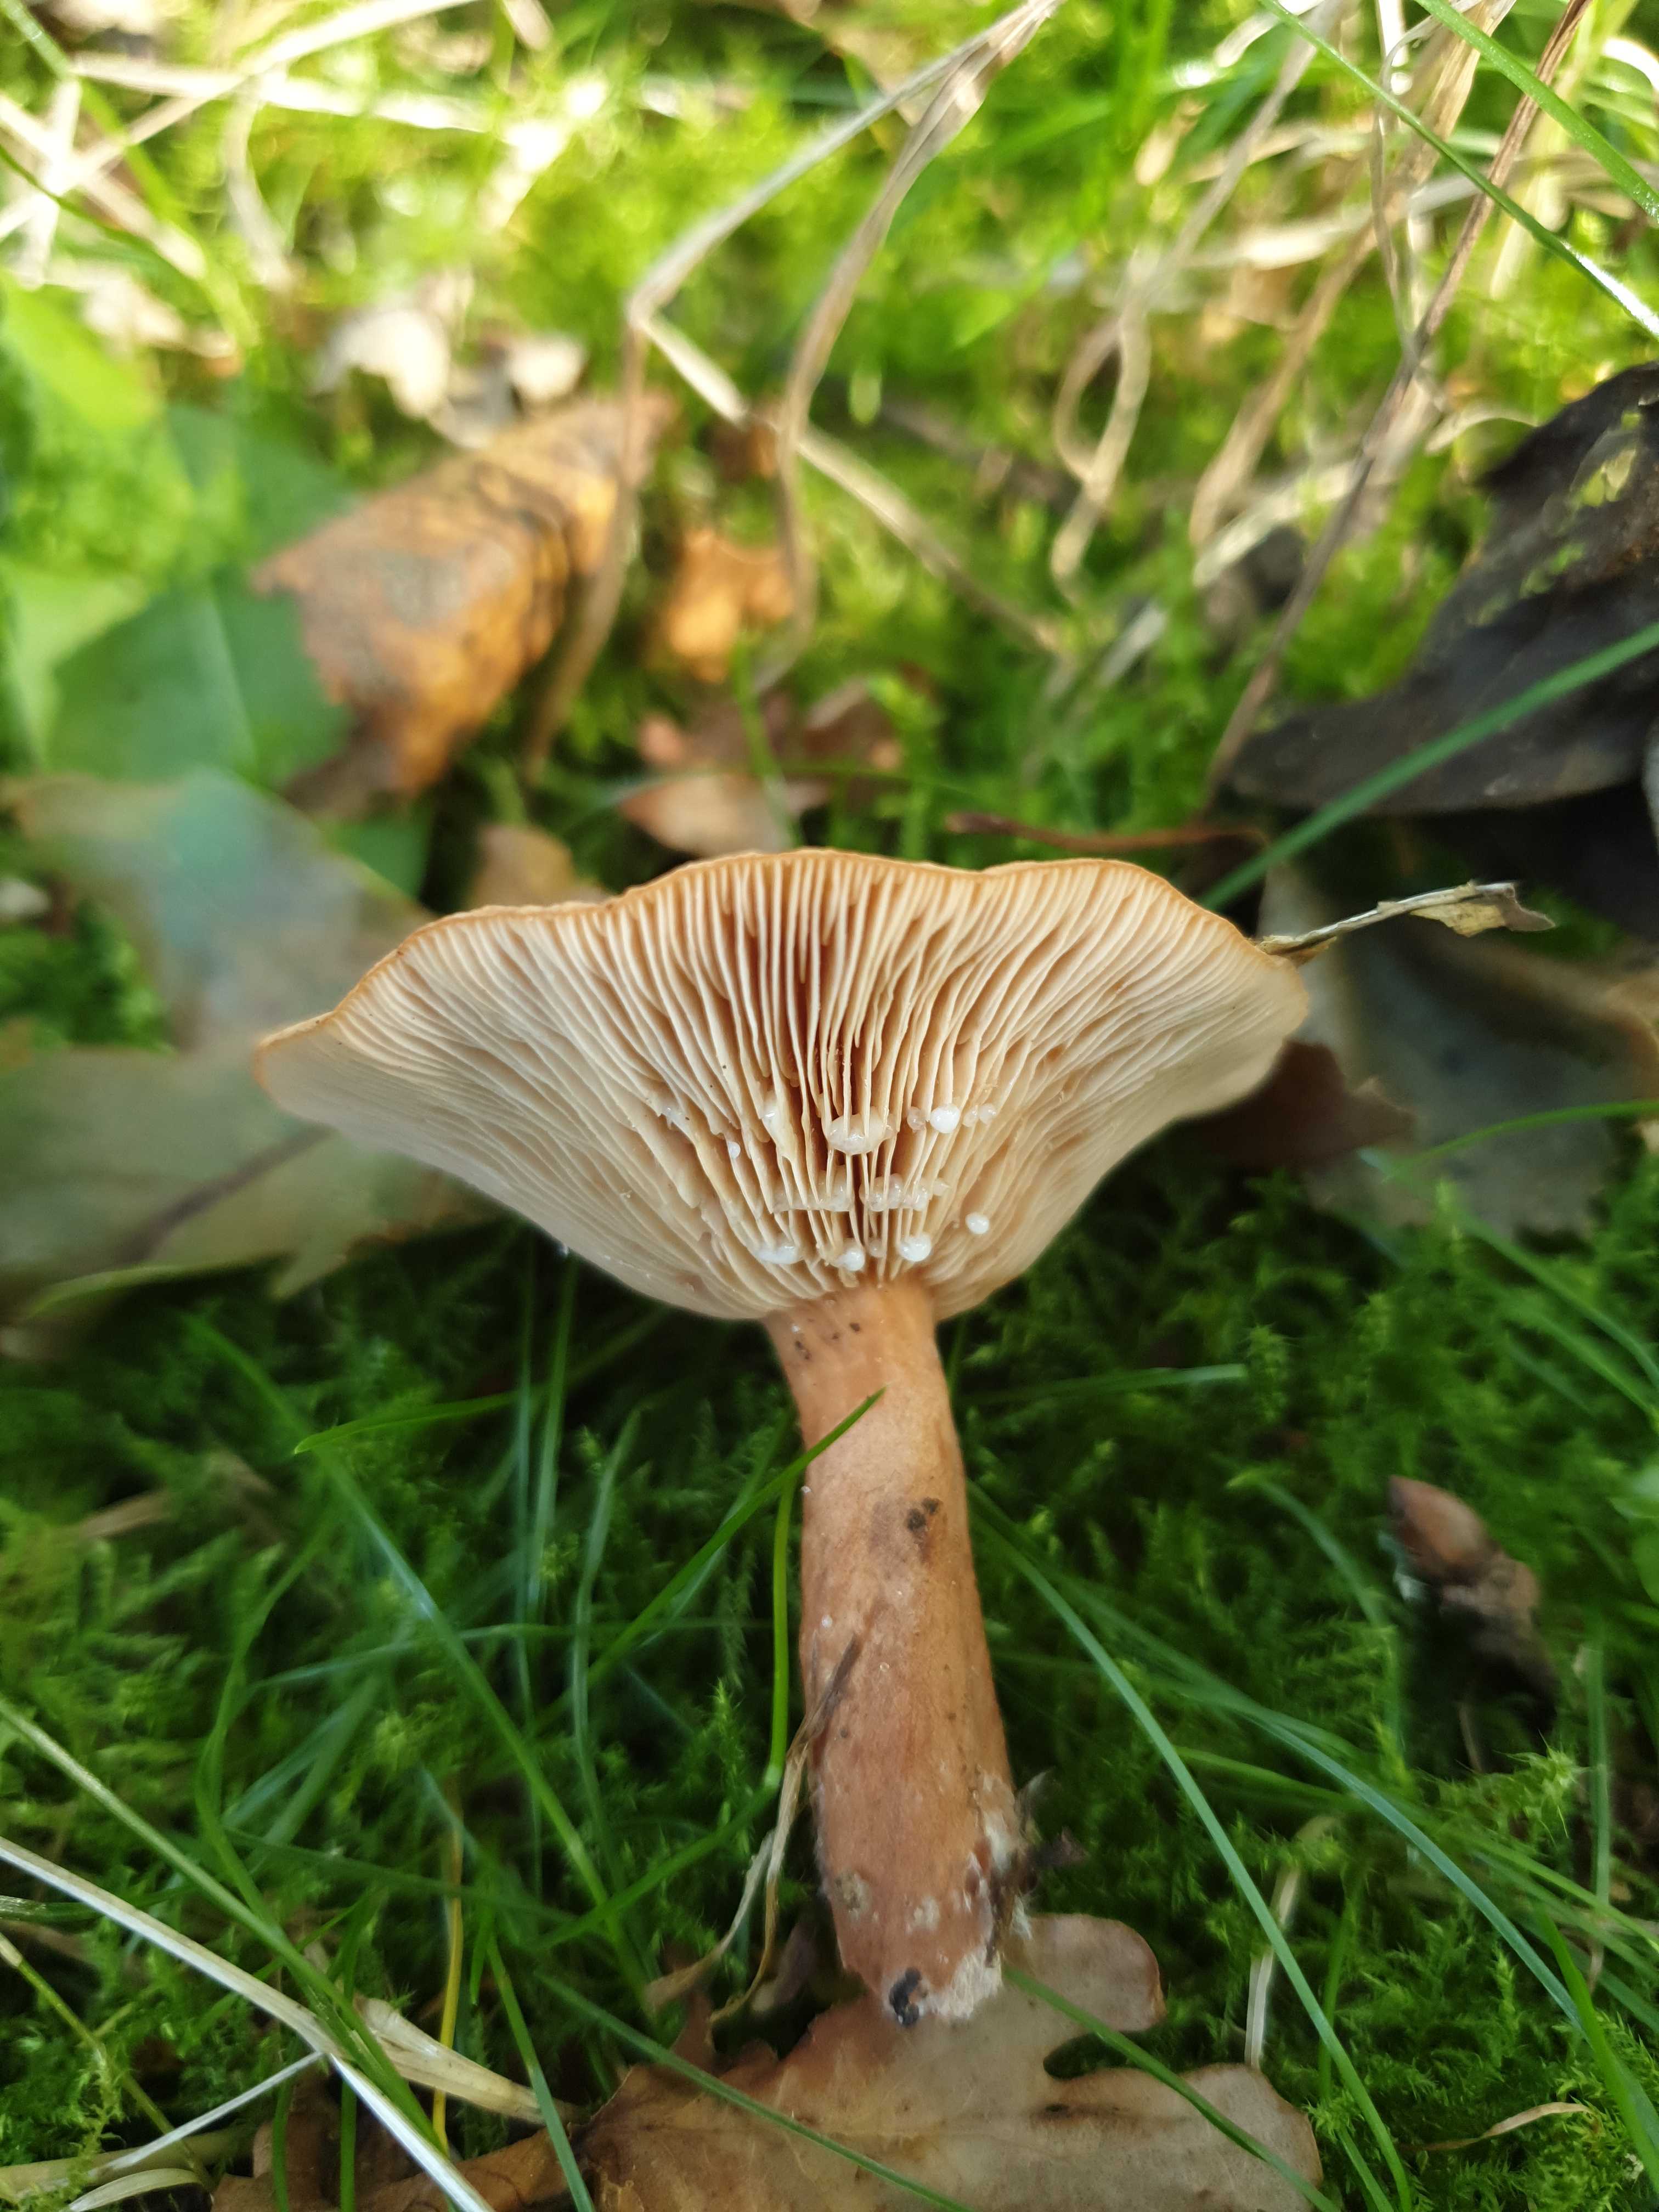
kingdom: Fungi
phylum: Basidiomycota
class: Agaricomycetes
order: Russulales
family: Russulaceae
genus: Lactarius
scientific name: Lactarius tabidus
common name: rynket mælkehat
